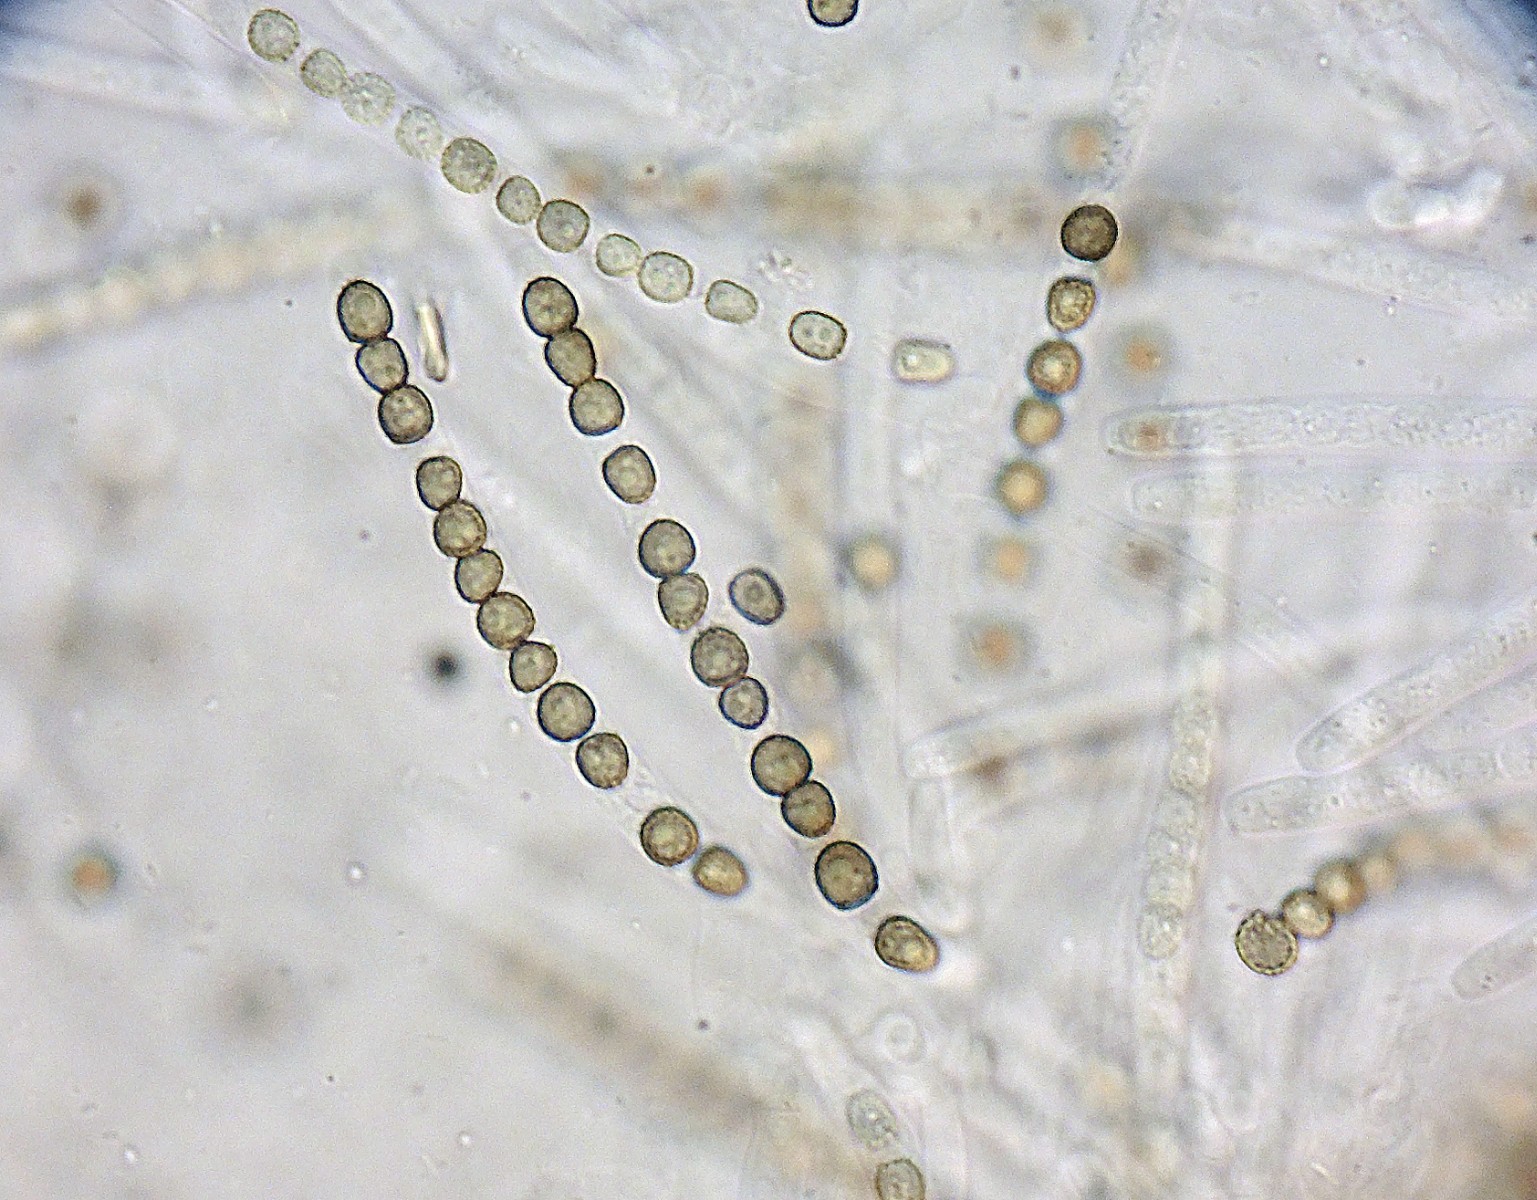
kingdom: Fungi
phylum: Ascomycota
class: Sordariomycetes
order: Hypocreales
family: Hypocreaceae
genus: Trichoderma
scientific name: Trichoderma atrobrunneum
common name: grønsort kødkerne
